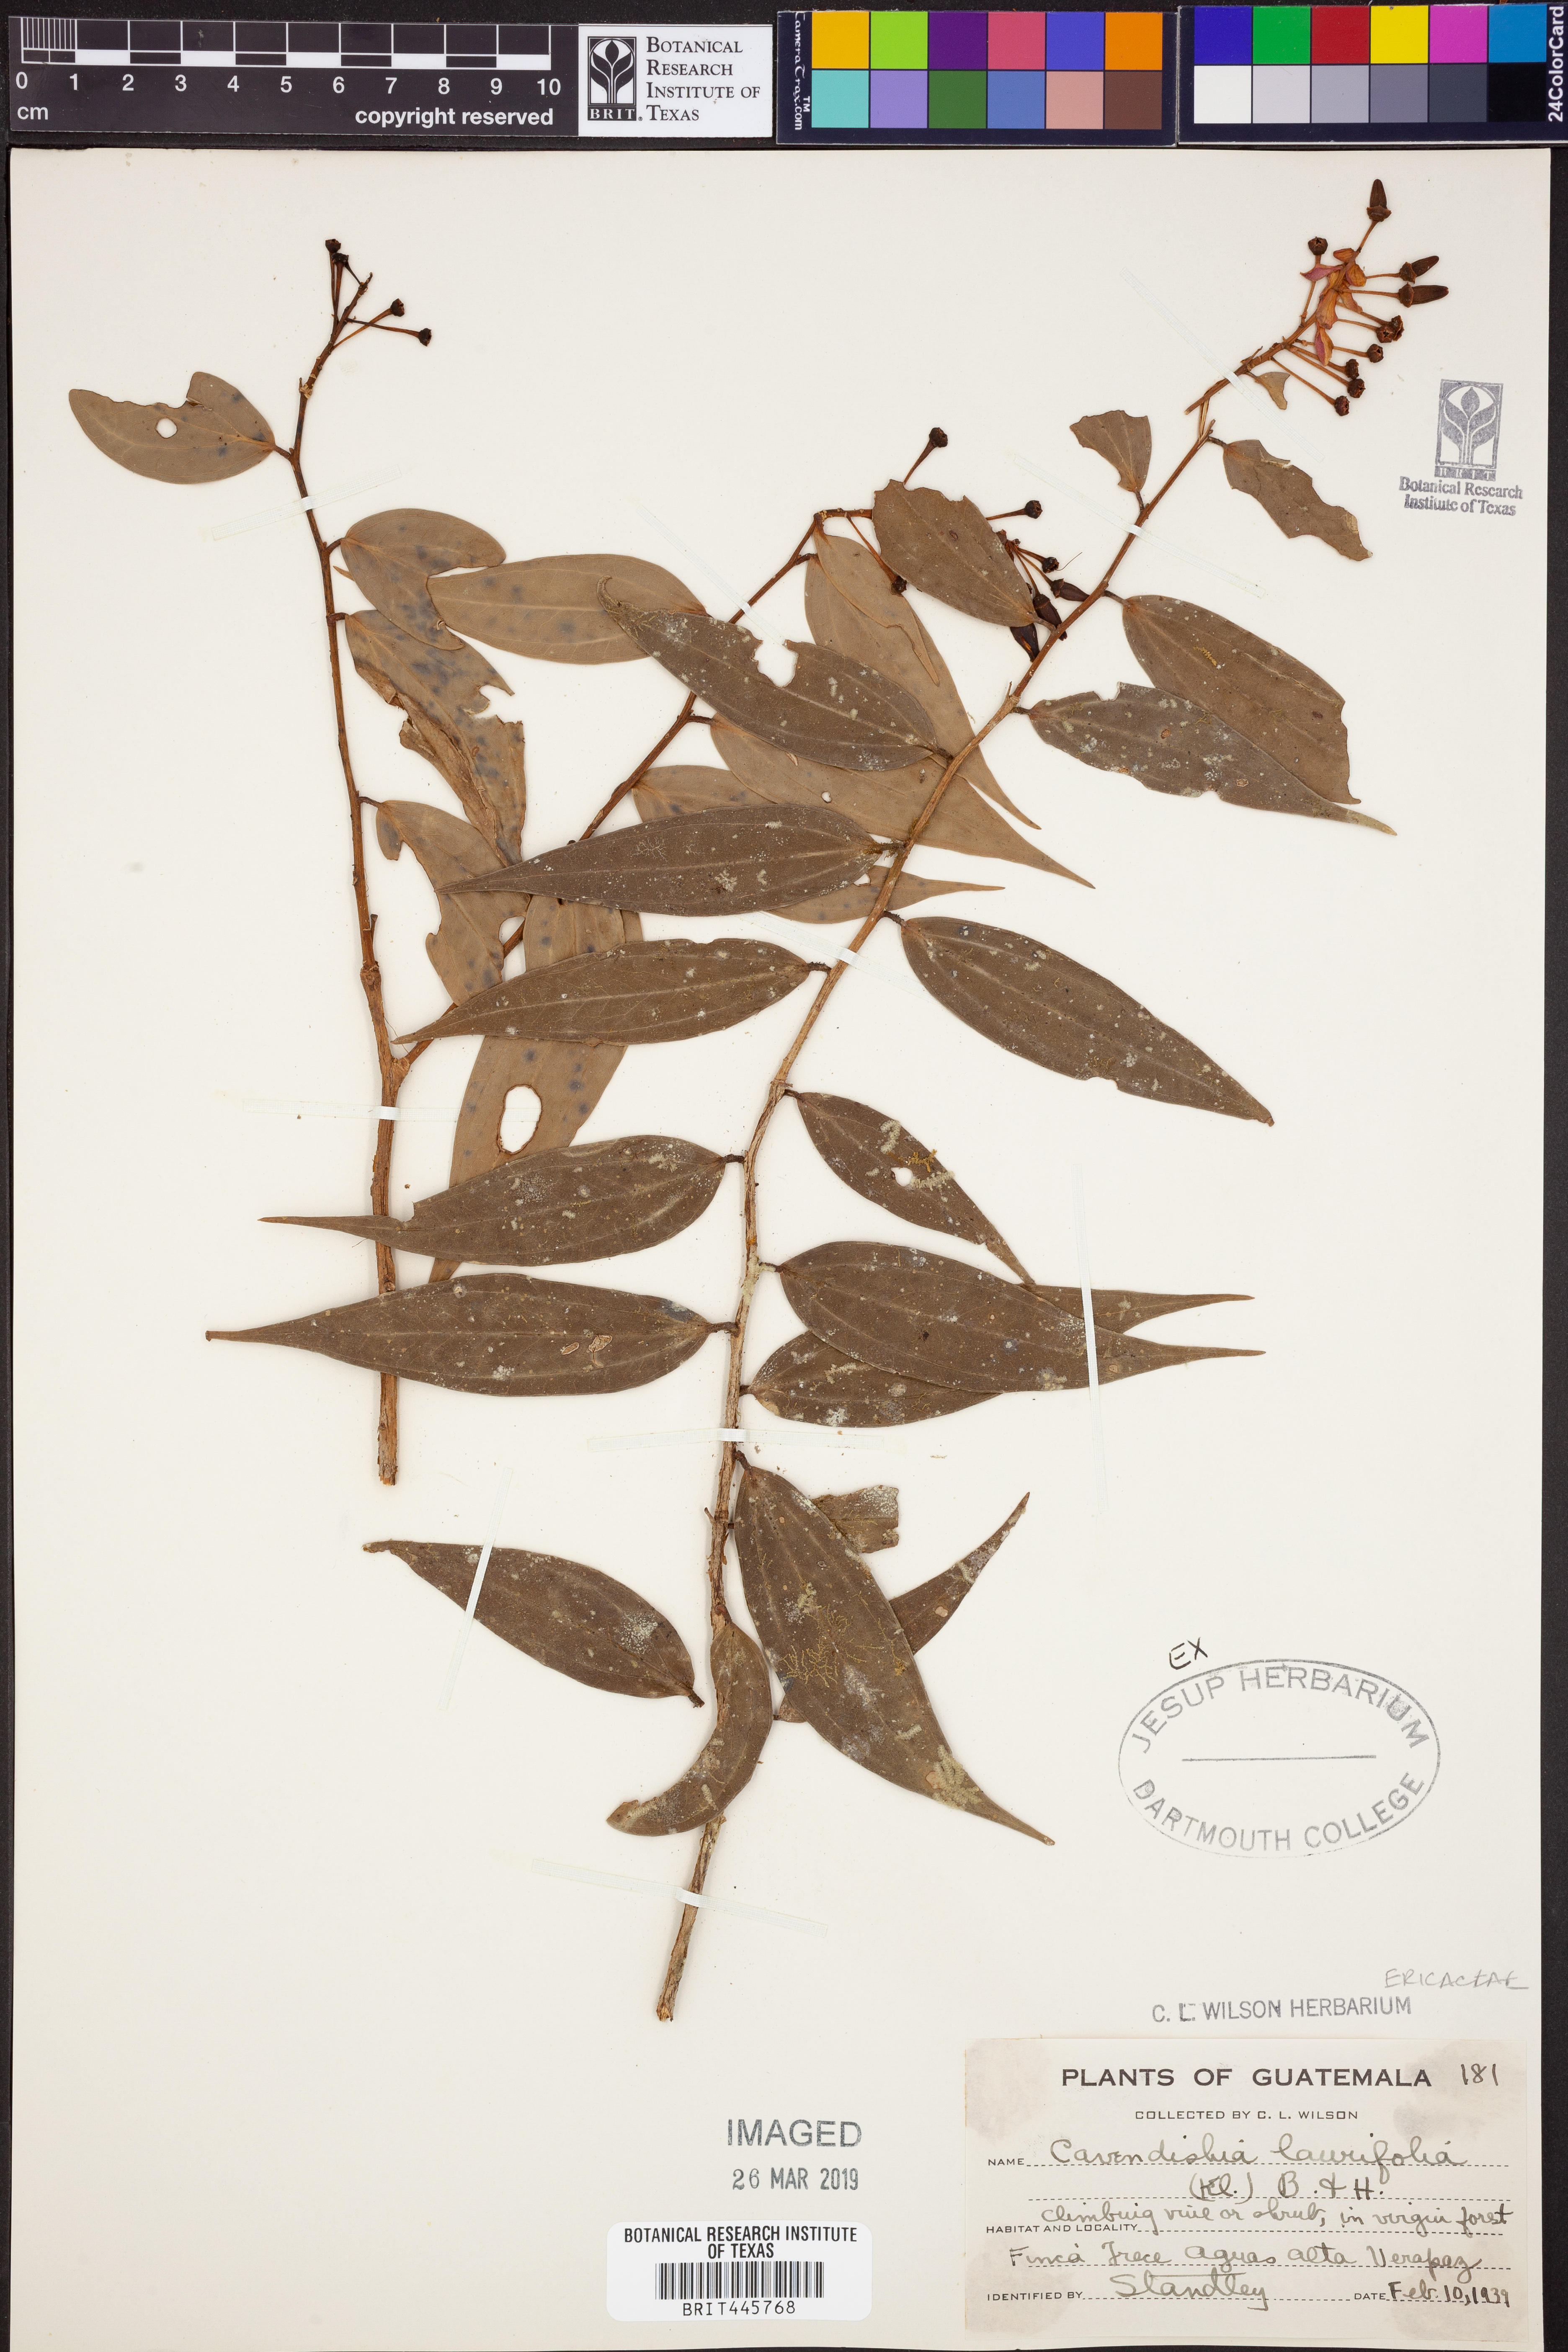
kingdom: Plantae
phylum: Tracheophyta
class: Magnoliopsida
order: Ericales
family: Ericaceae
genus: Cavendishia
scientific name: Cavendishia laurifolia
